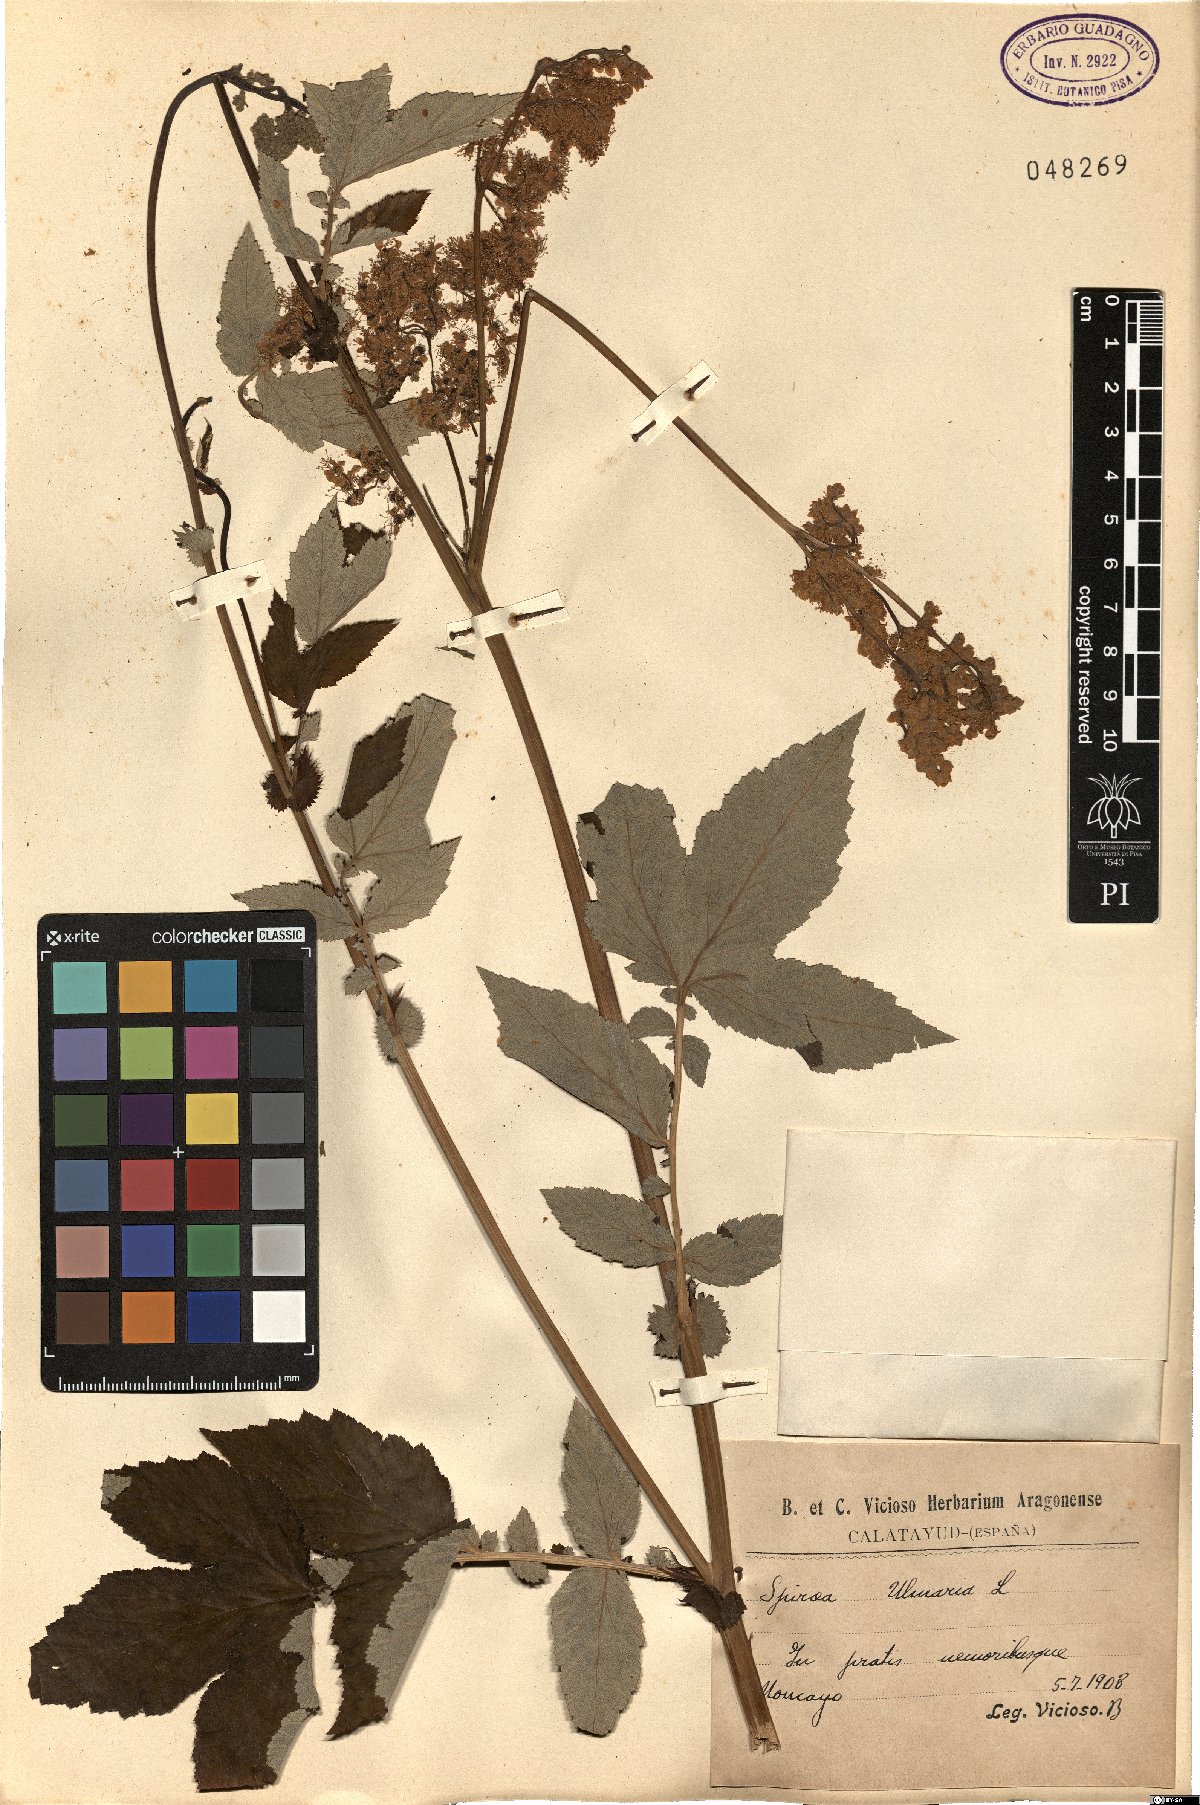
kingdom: Plantae
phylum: Tracheophyta
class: Magnoliopsida
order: Rosales
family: Rosaceae
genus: Filipendula
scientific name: Filipendula ulmaria
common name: Meadowsweet
